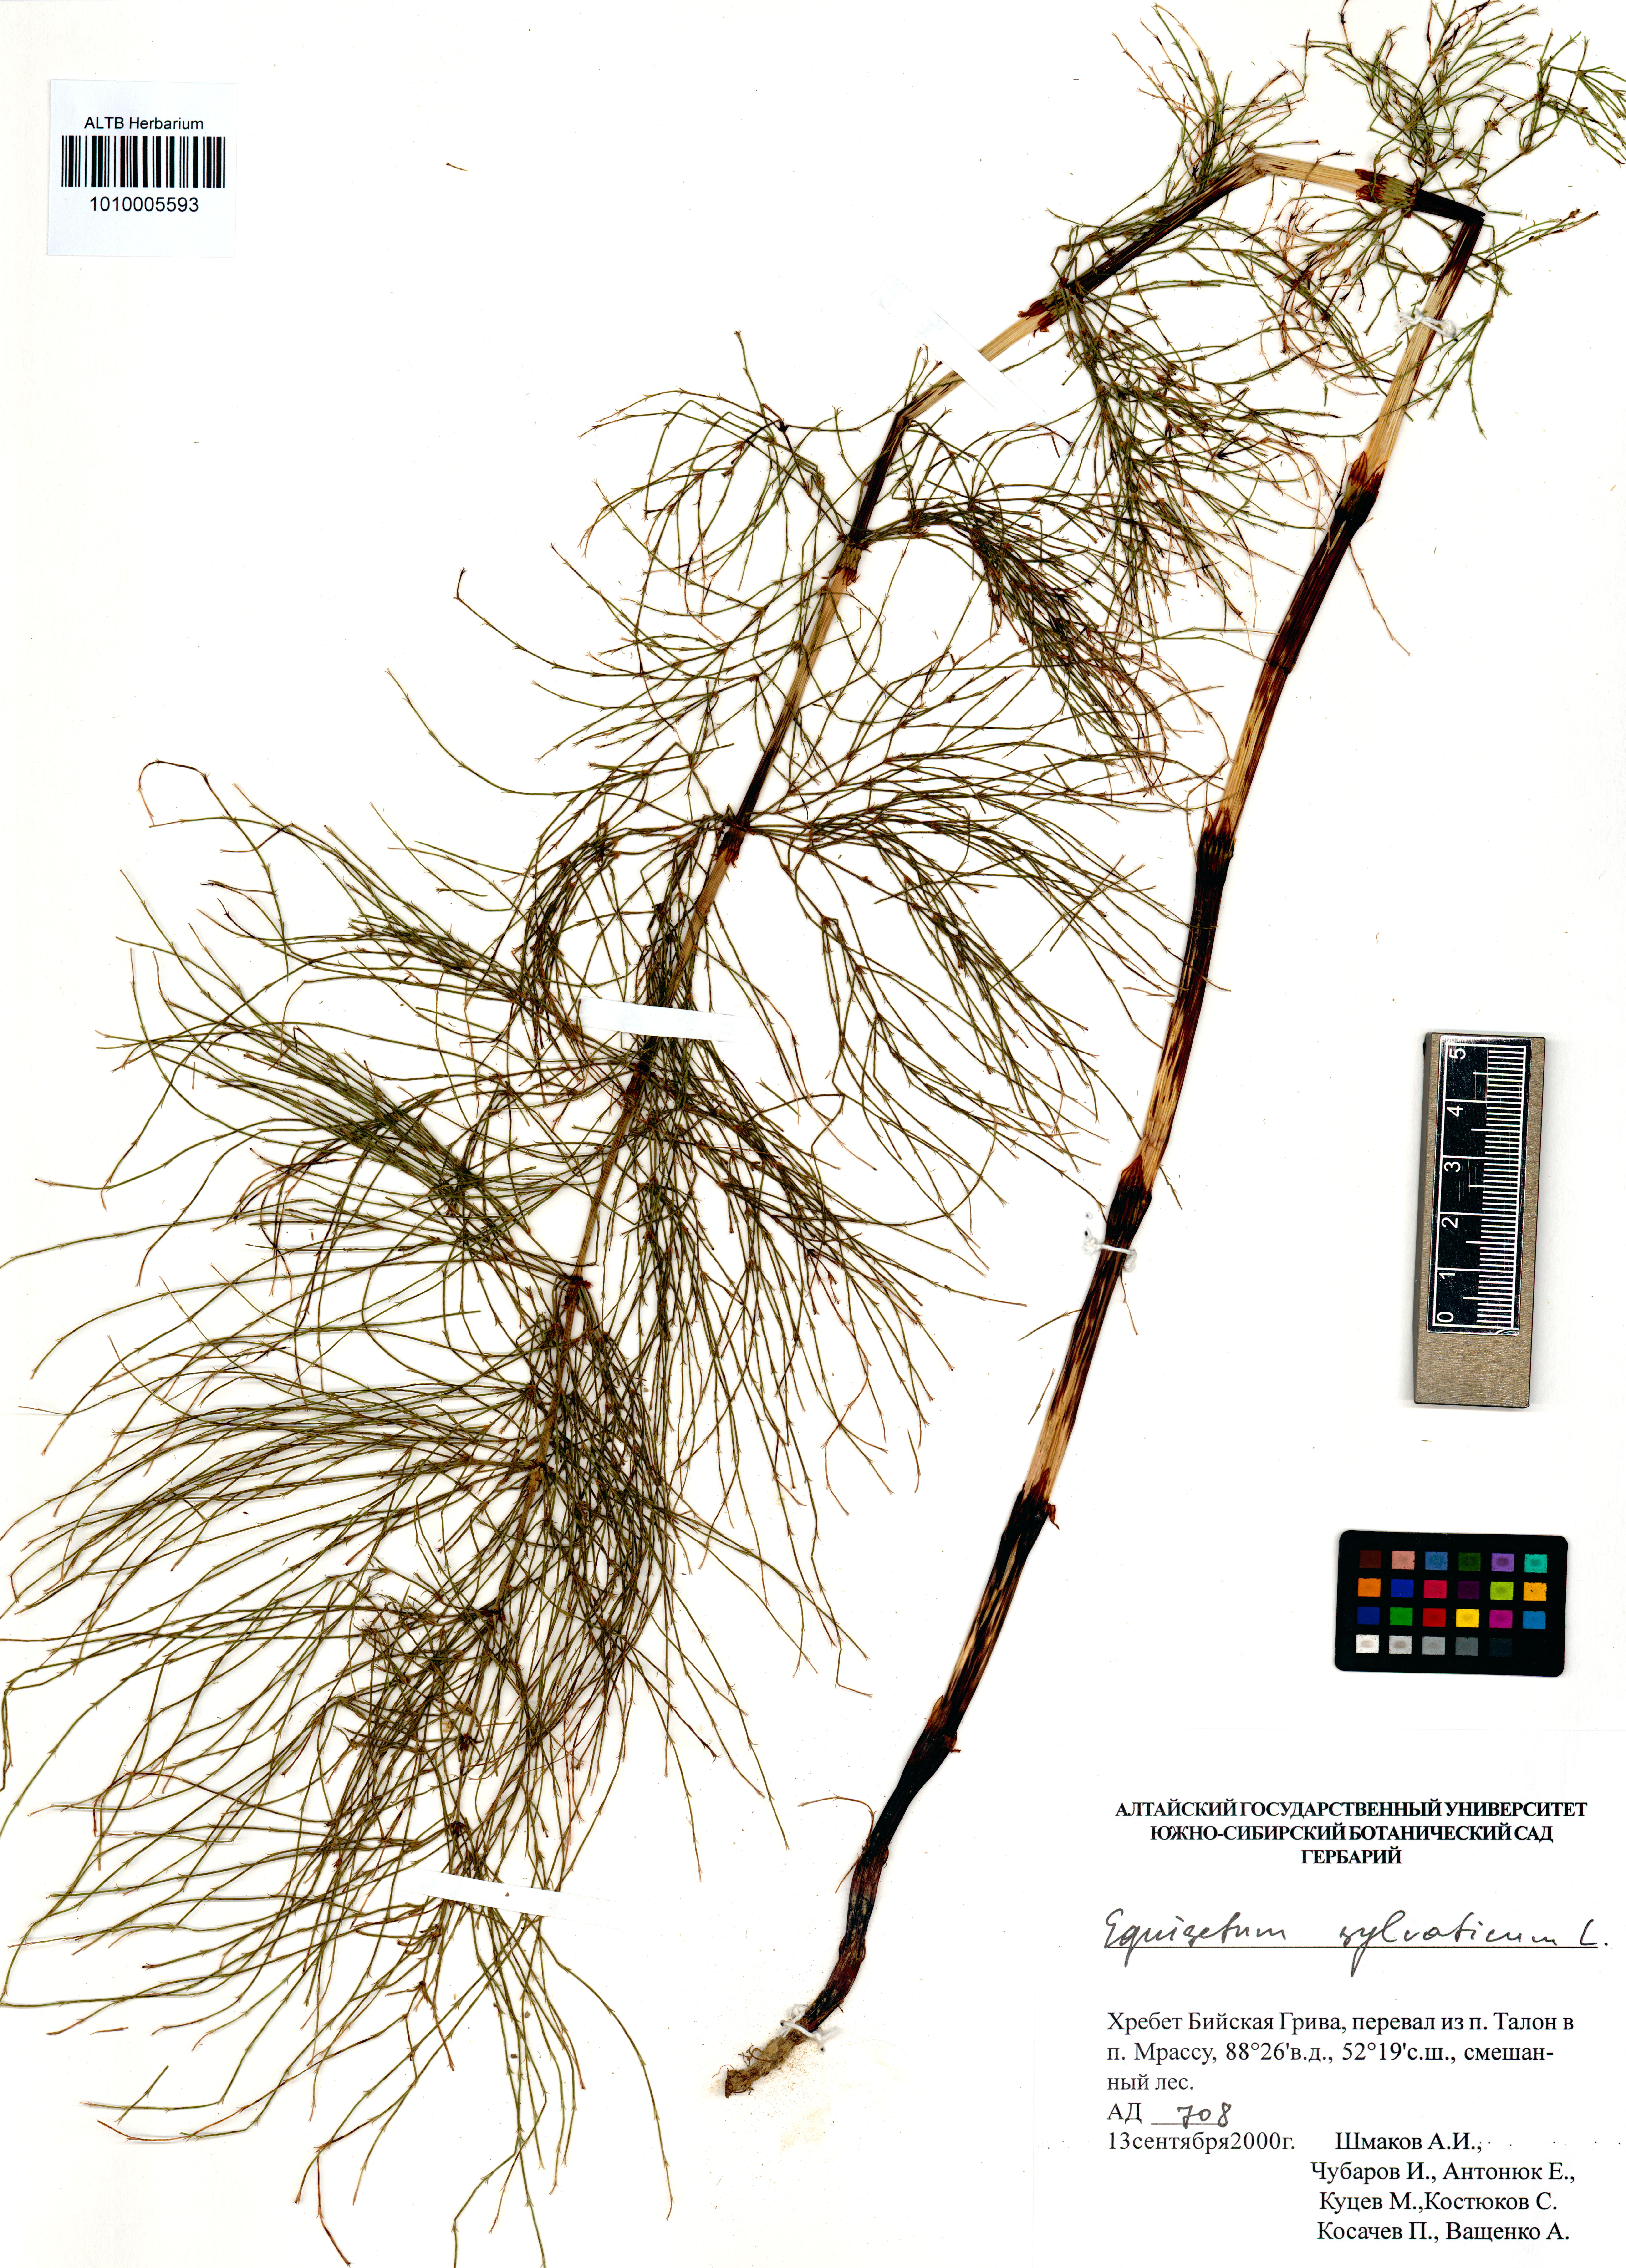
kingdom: Plantae
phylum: Tracheophyta
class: Polypodiopsida
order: Equisetales
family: Equisetaceae
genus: Equisetum
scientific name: Equisetum sylvaticum
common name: Wood horsetail
